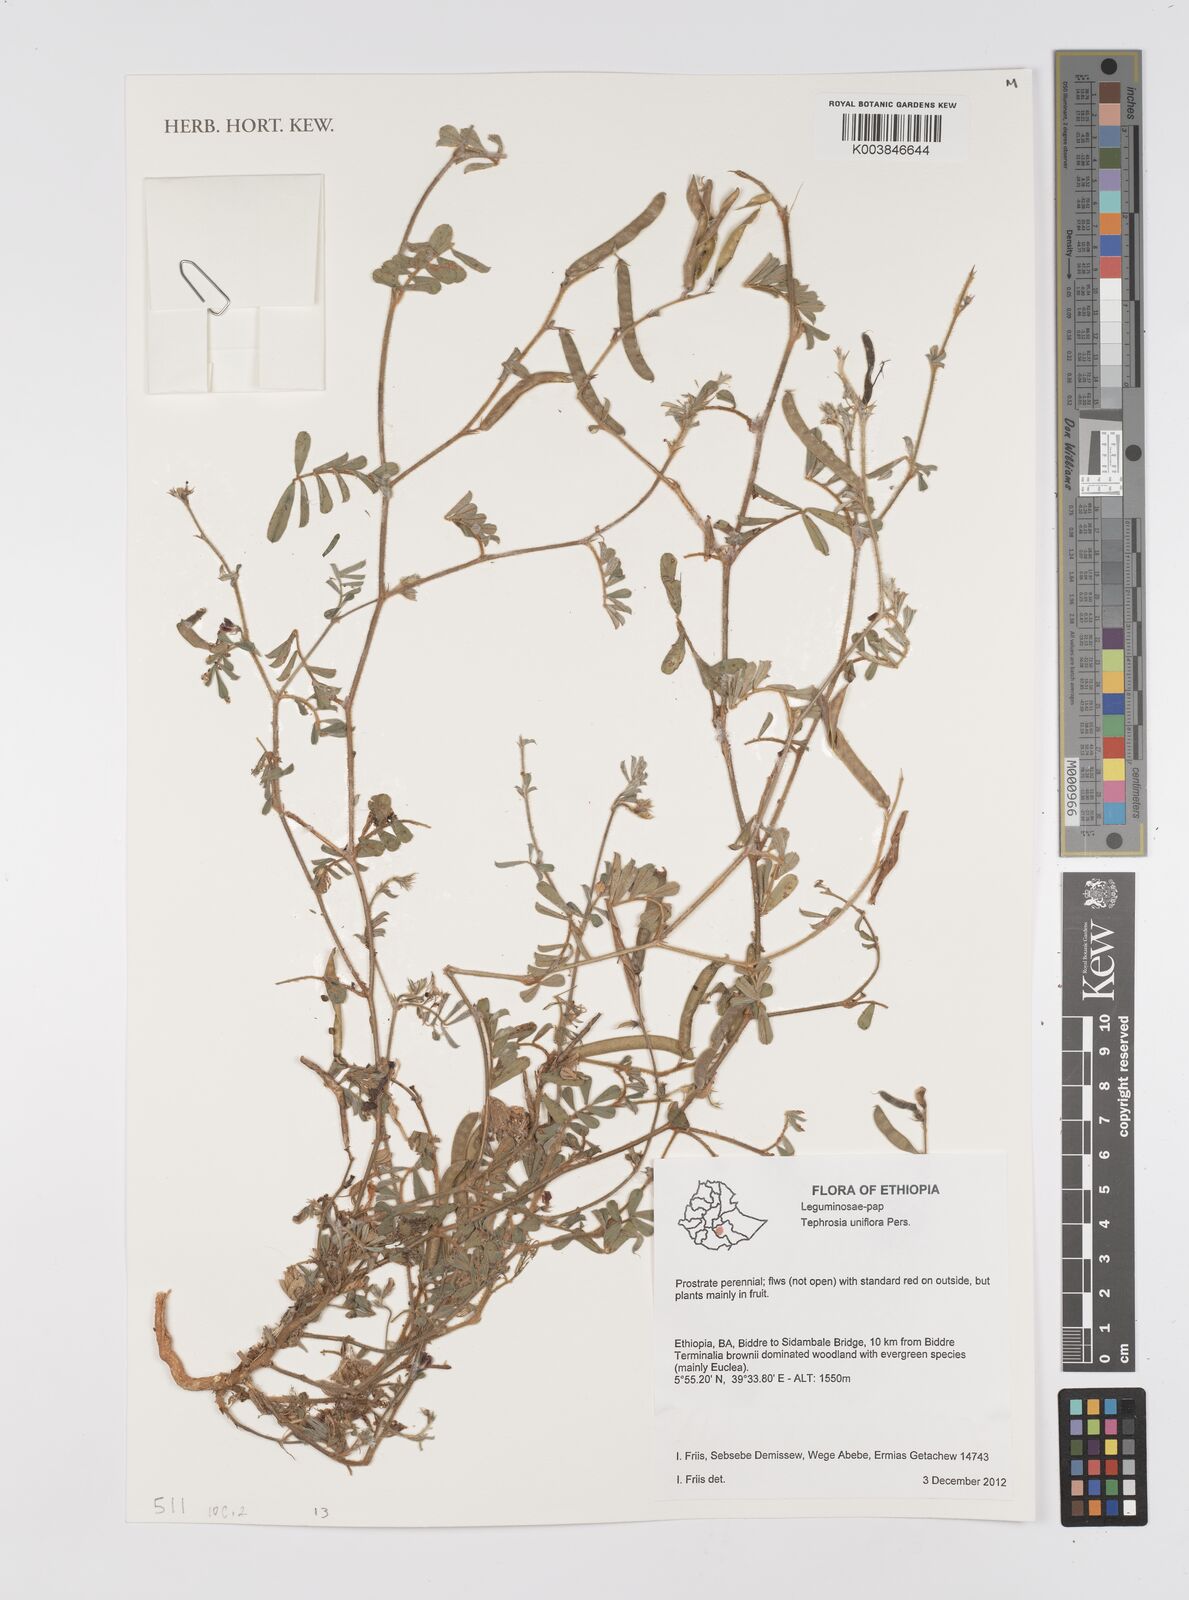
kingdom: Plantae
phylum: Tracheophyta
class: Magnoliopsida
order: Fabales
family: Fabaceae
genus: Tephrosia
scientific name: Tephrosia uniflora
